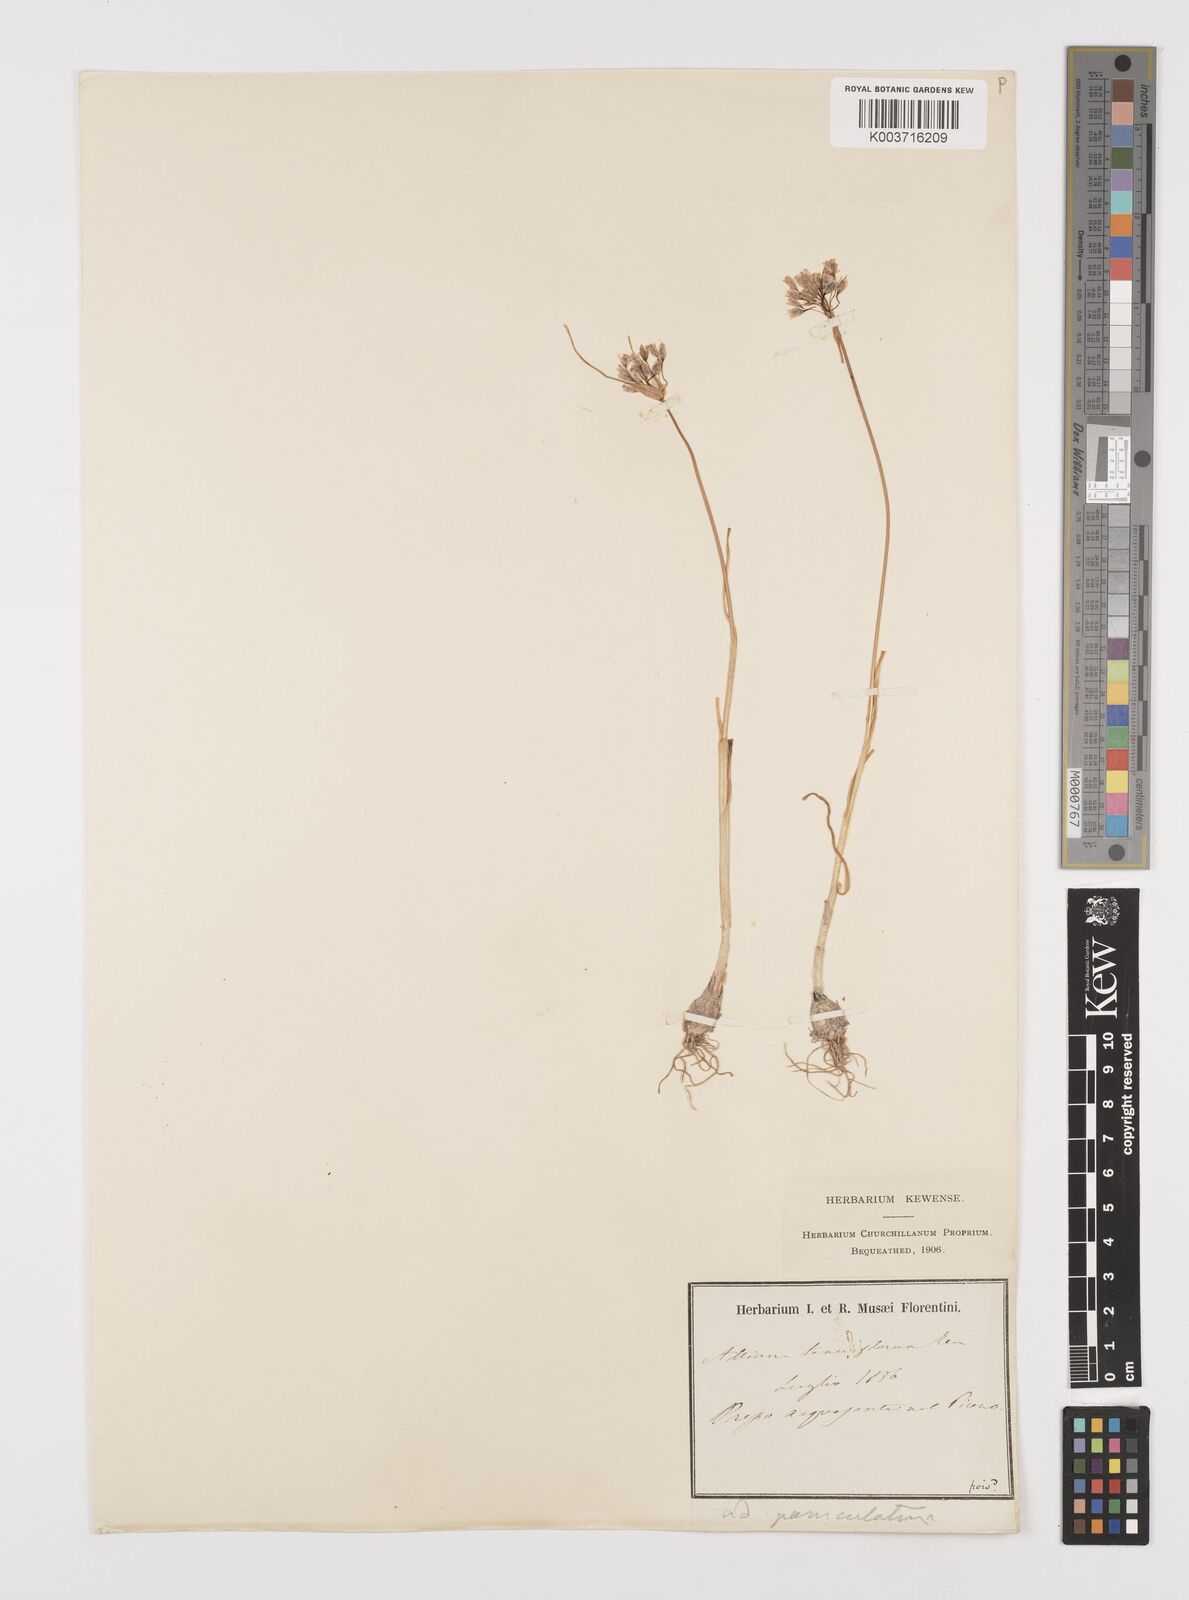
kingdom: Plantae
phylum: Tracheophyta
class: Liliopsida
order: Asparagales
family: Amaryllidaceae
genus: Allium
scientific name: Allium tenuiflorum
